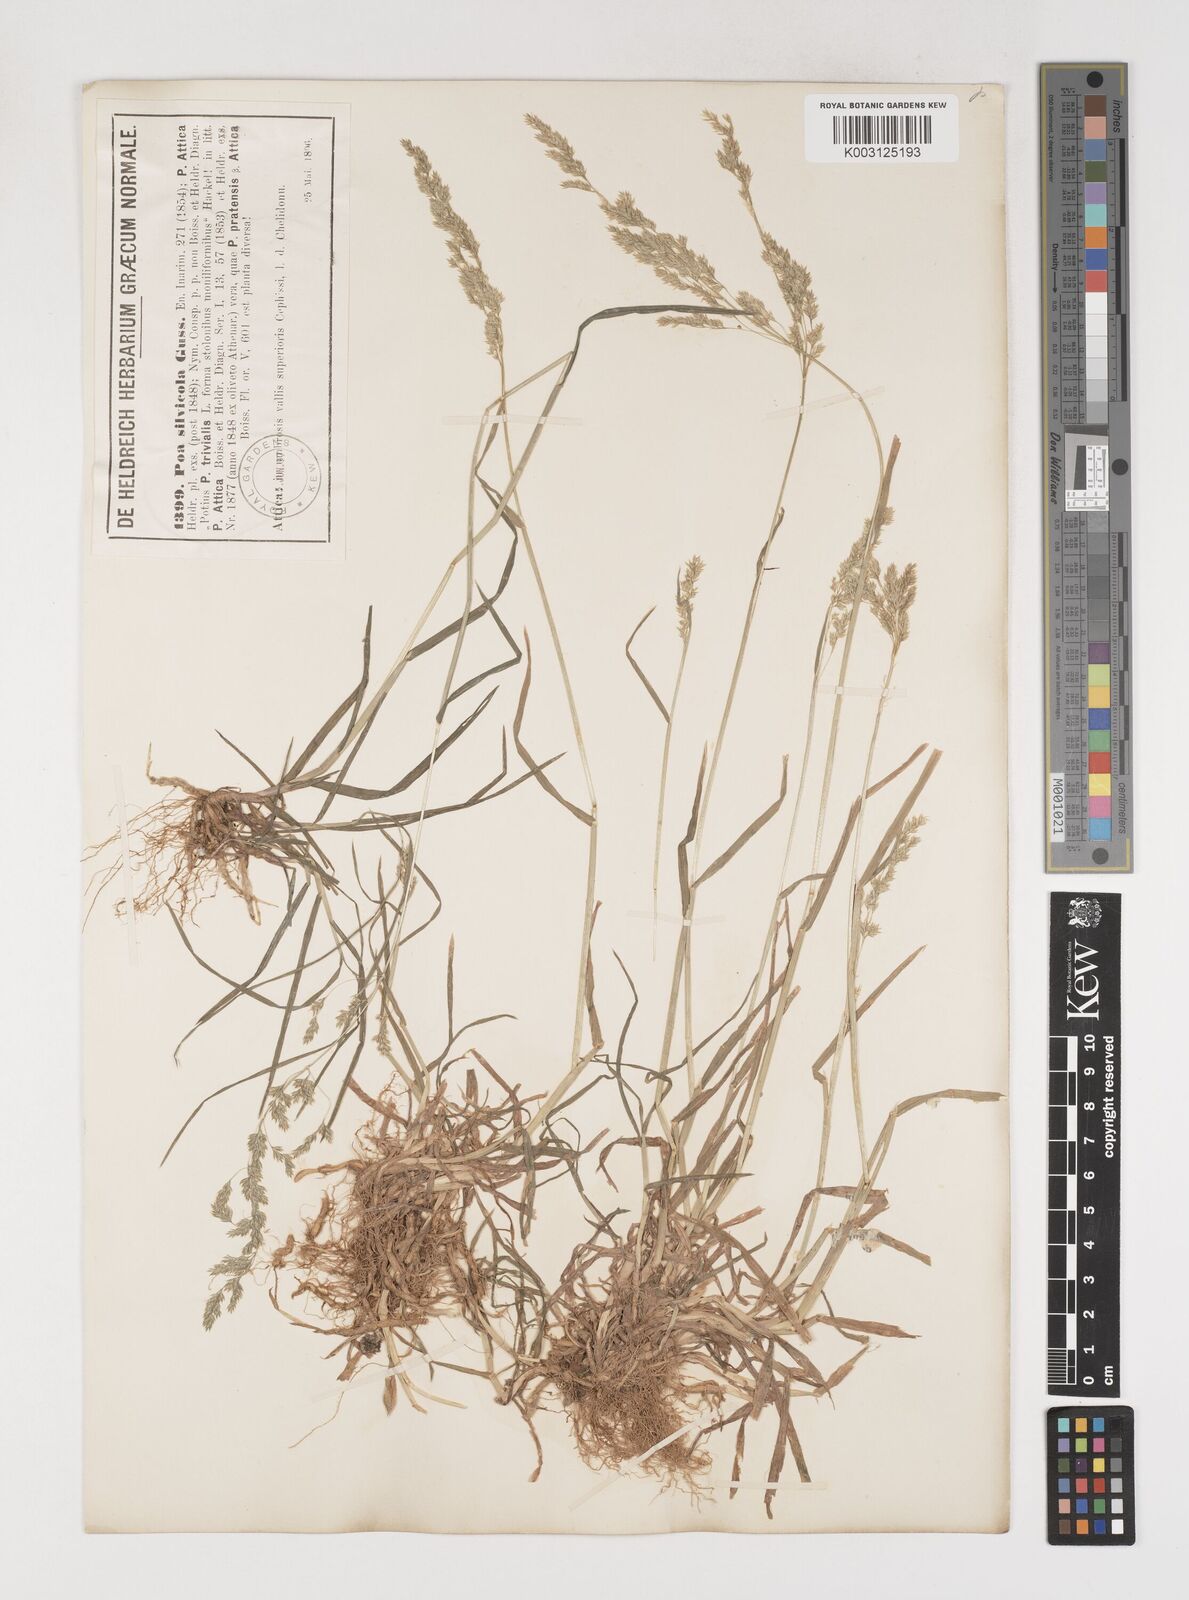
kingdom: Plantae
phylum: Tracheophyta
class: Liliopsida
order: Poales
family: Poaceae
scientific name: Poaceae
